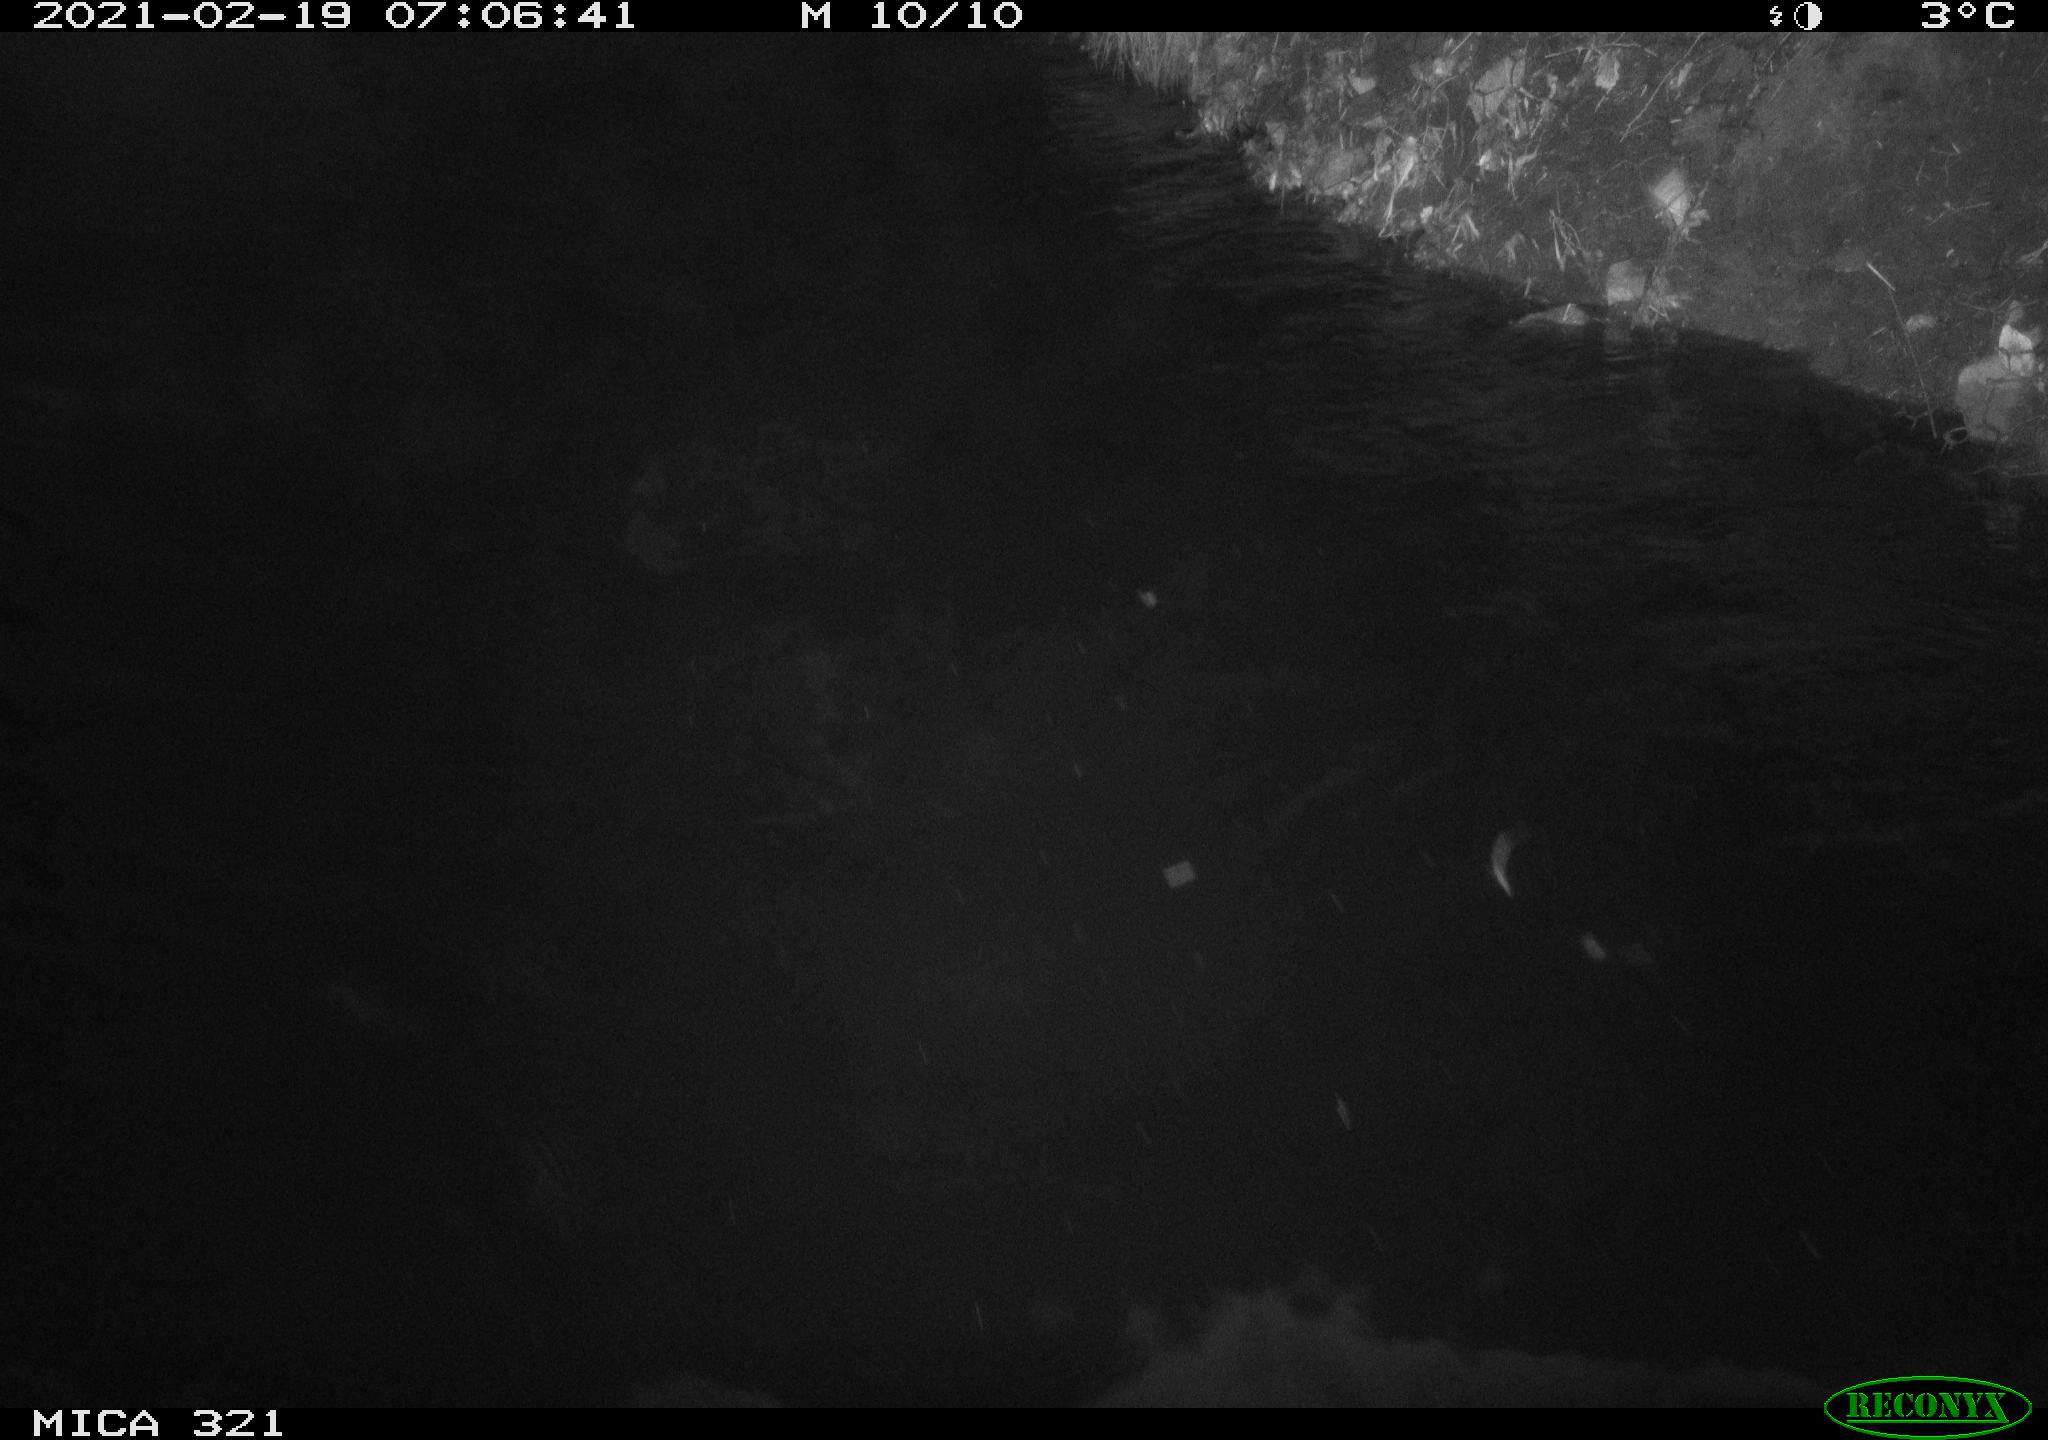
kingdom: Animalia
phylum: Chordata
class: Aves
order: Anseriformes
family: Anatidae
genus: Anas
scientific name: Anas platyrhynchos
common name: Mallard
